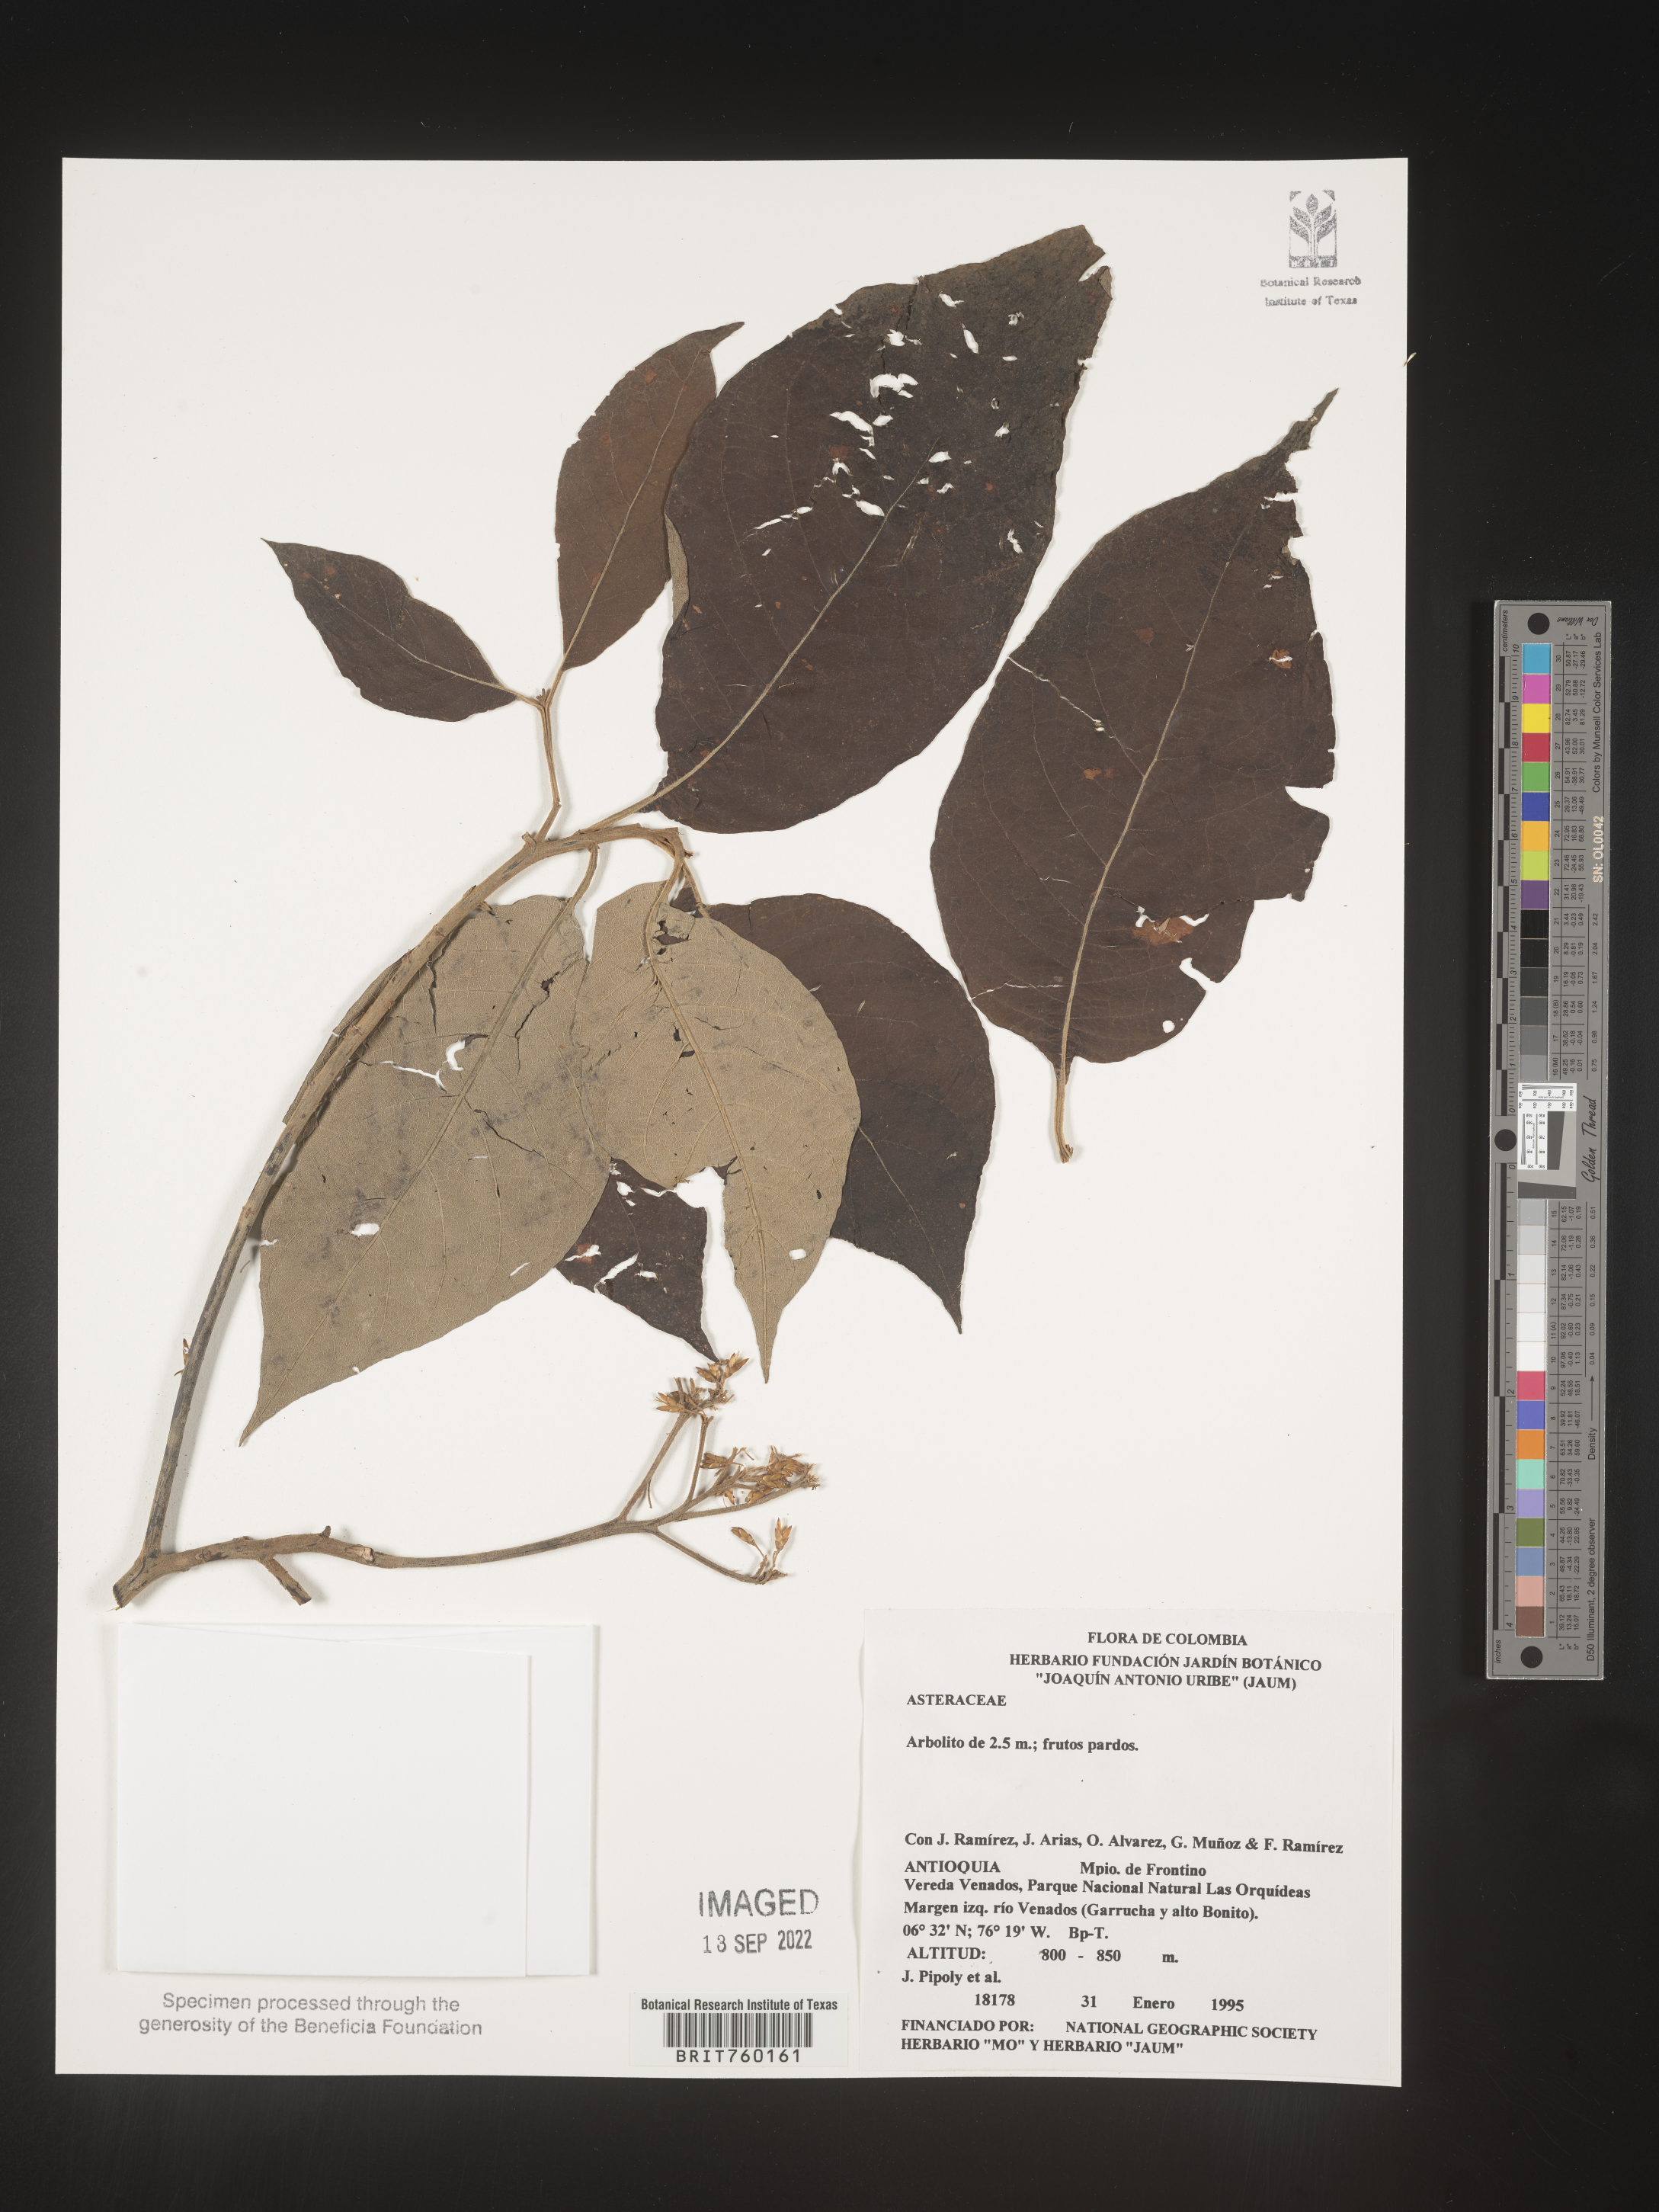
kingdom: Plantae
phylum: Tracheophyta
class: Magnoliopsida
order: Asterales
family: Asteraceae
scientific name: Asteraceae
